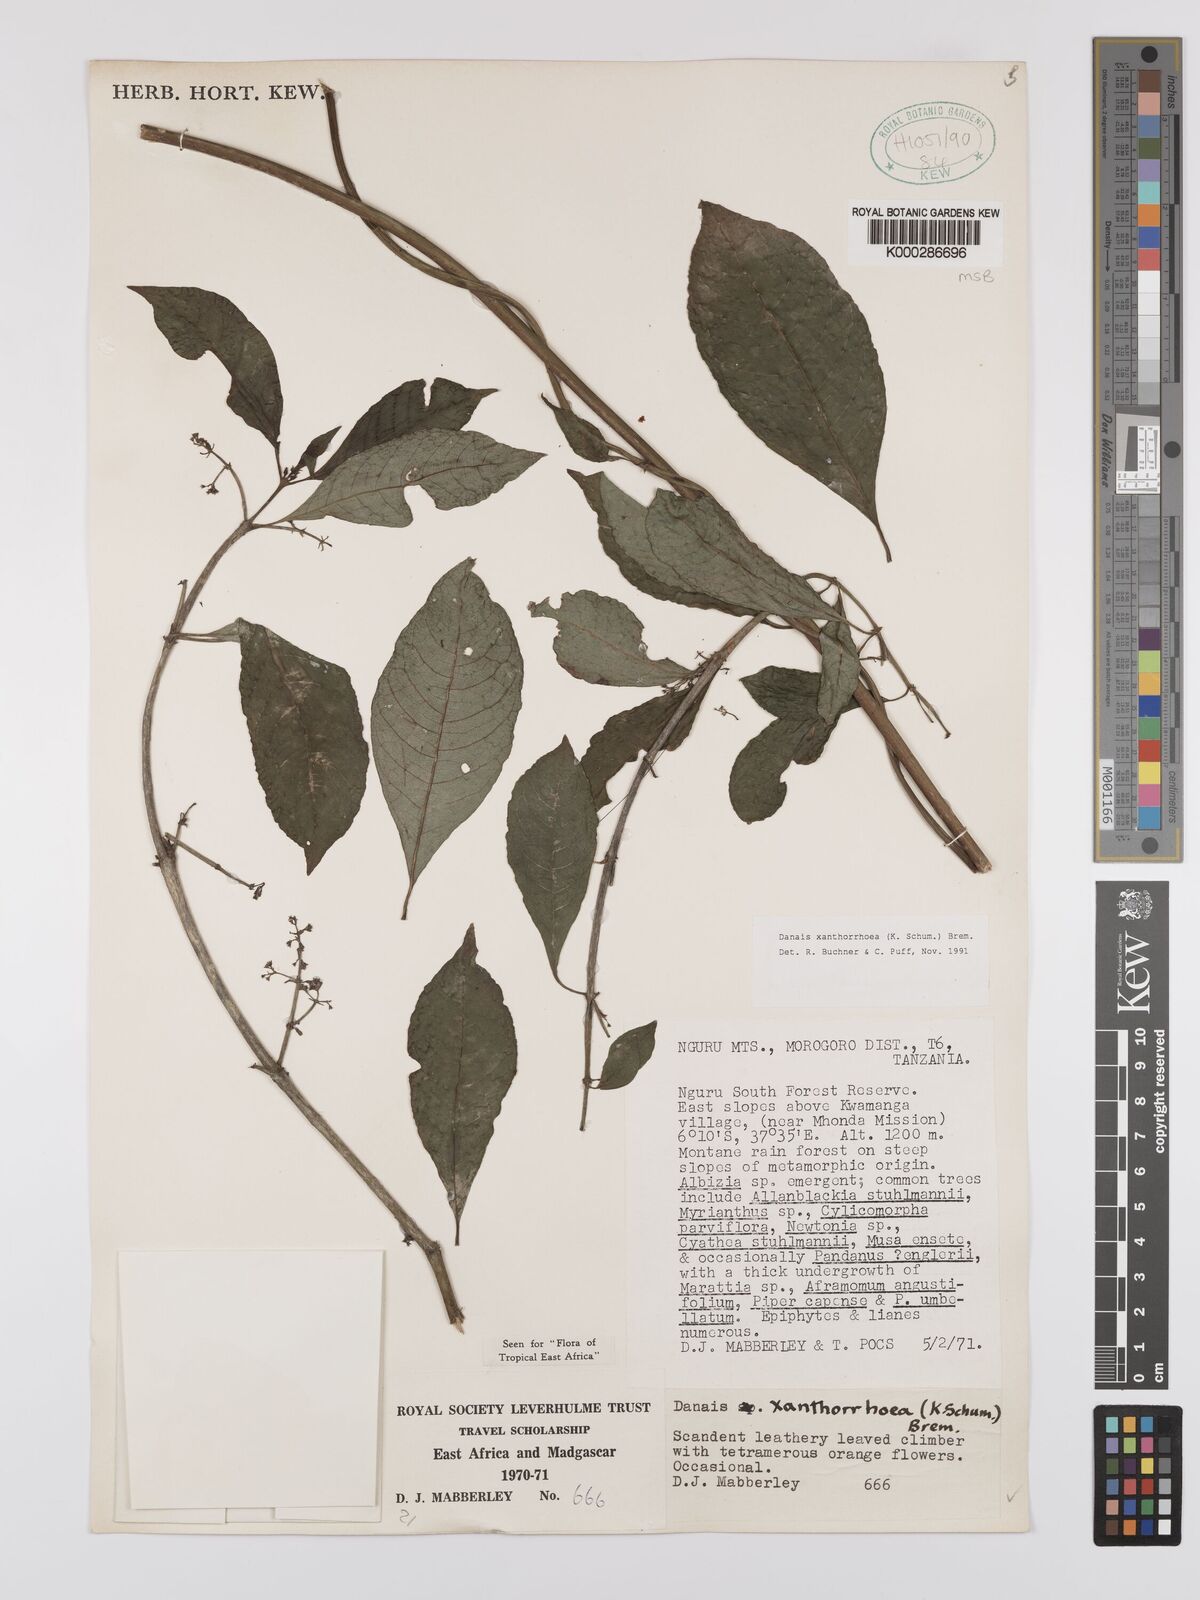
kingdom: Plantae
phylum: Tracheophyta
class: Magnoliopsida
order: Gentianales
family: Rubiaceae
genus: Danais
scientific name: Danais xanthorrhoea
